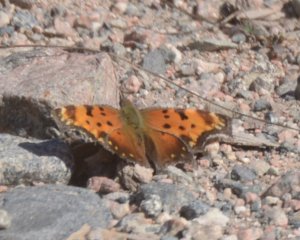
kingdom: Animalia
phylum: Arthropoda
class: Insecta
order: Lepidoptera
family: Nymphalidae
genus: Polygonia
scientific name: Polygonia progne
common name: Gray Comma
